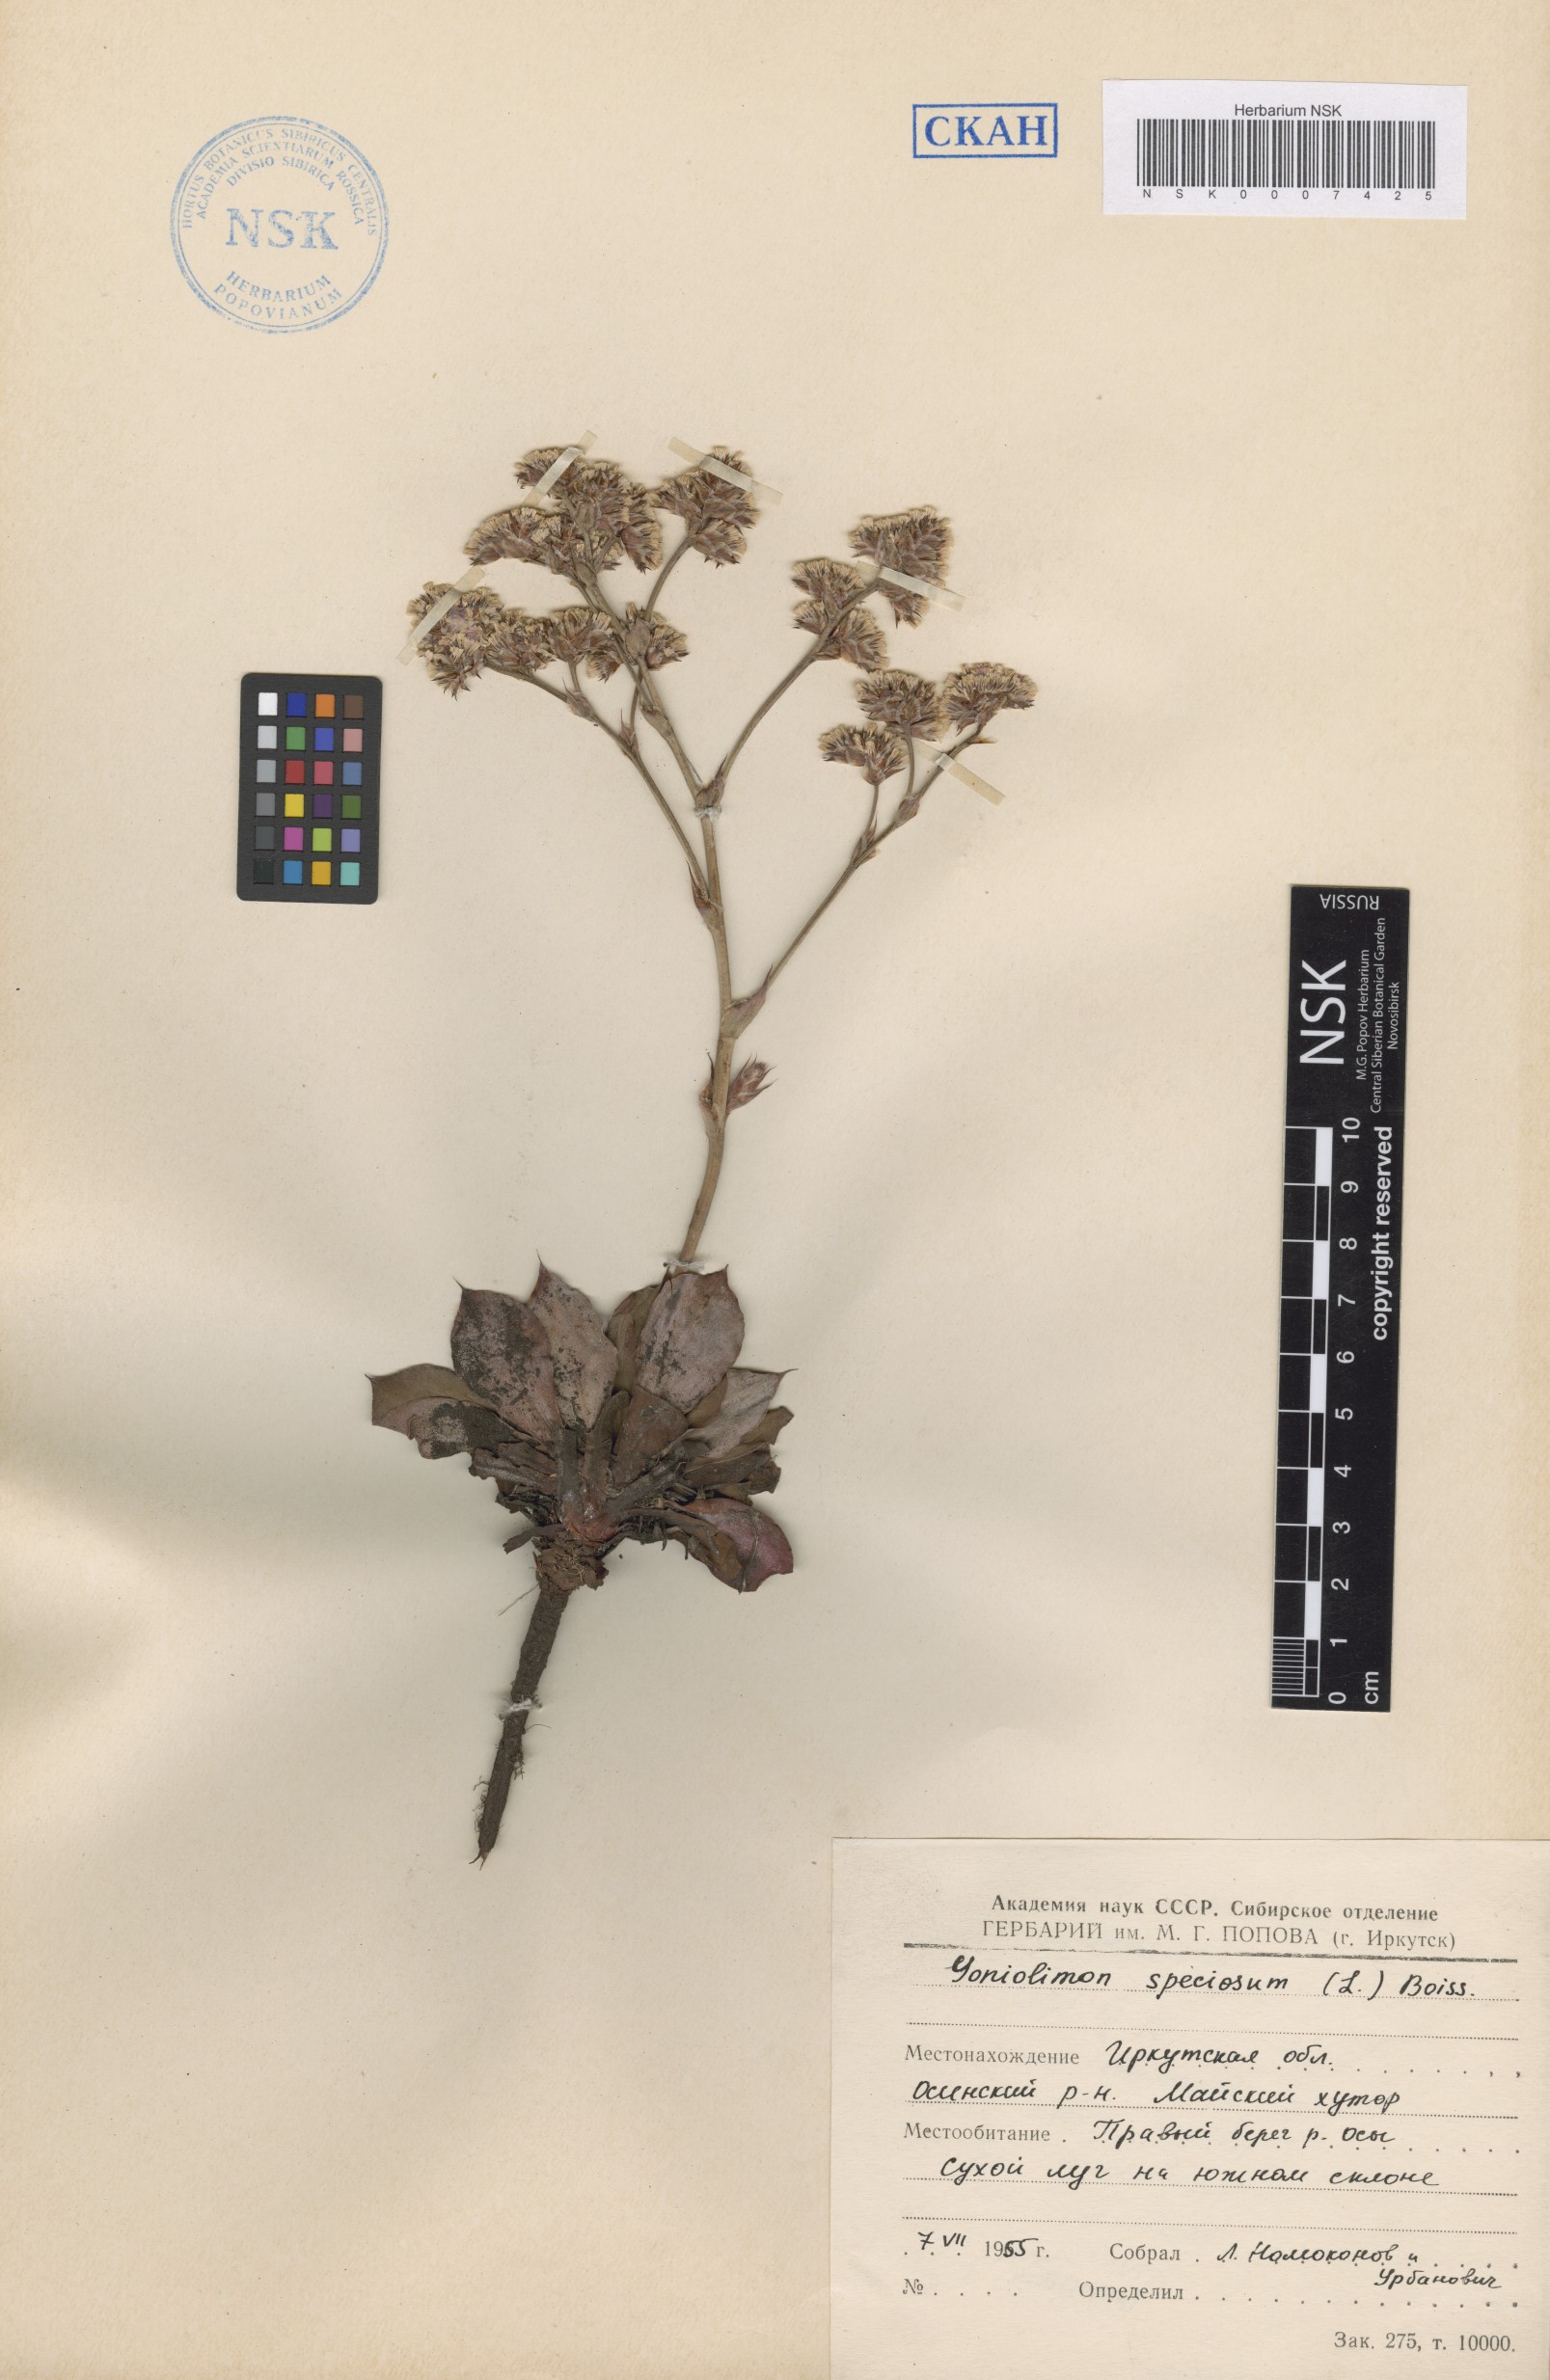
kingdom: Plantae
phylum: Tracheophyta
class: Magnoliopsida
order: Caryophyllales
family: Plumbaginaceae
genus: Goniolimon
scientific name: Goniolimon speciosum
